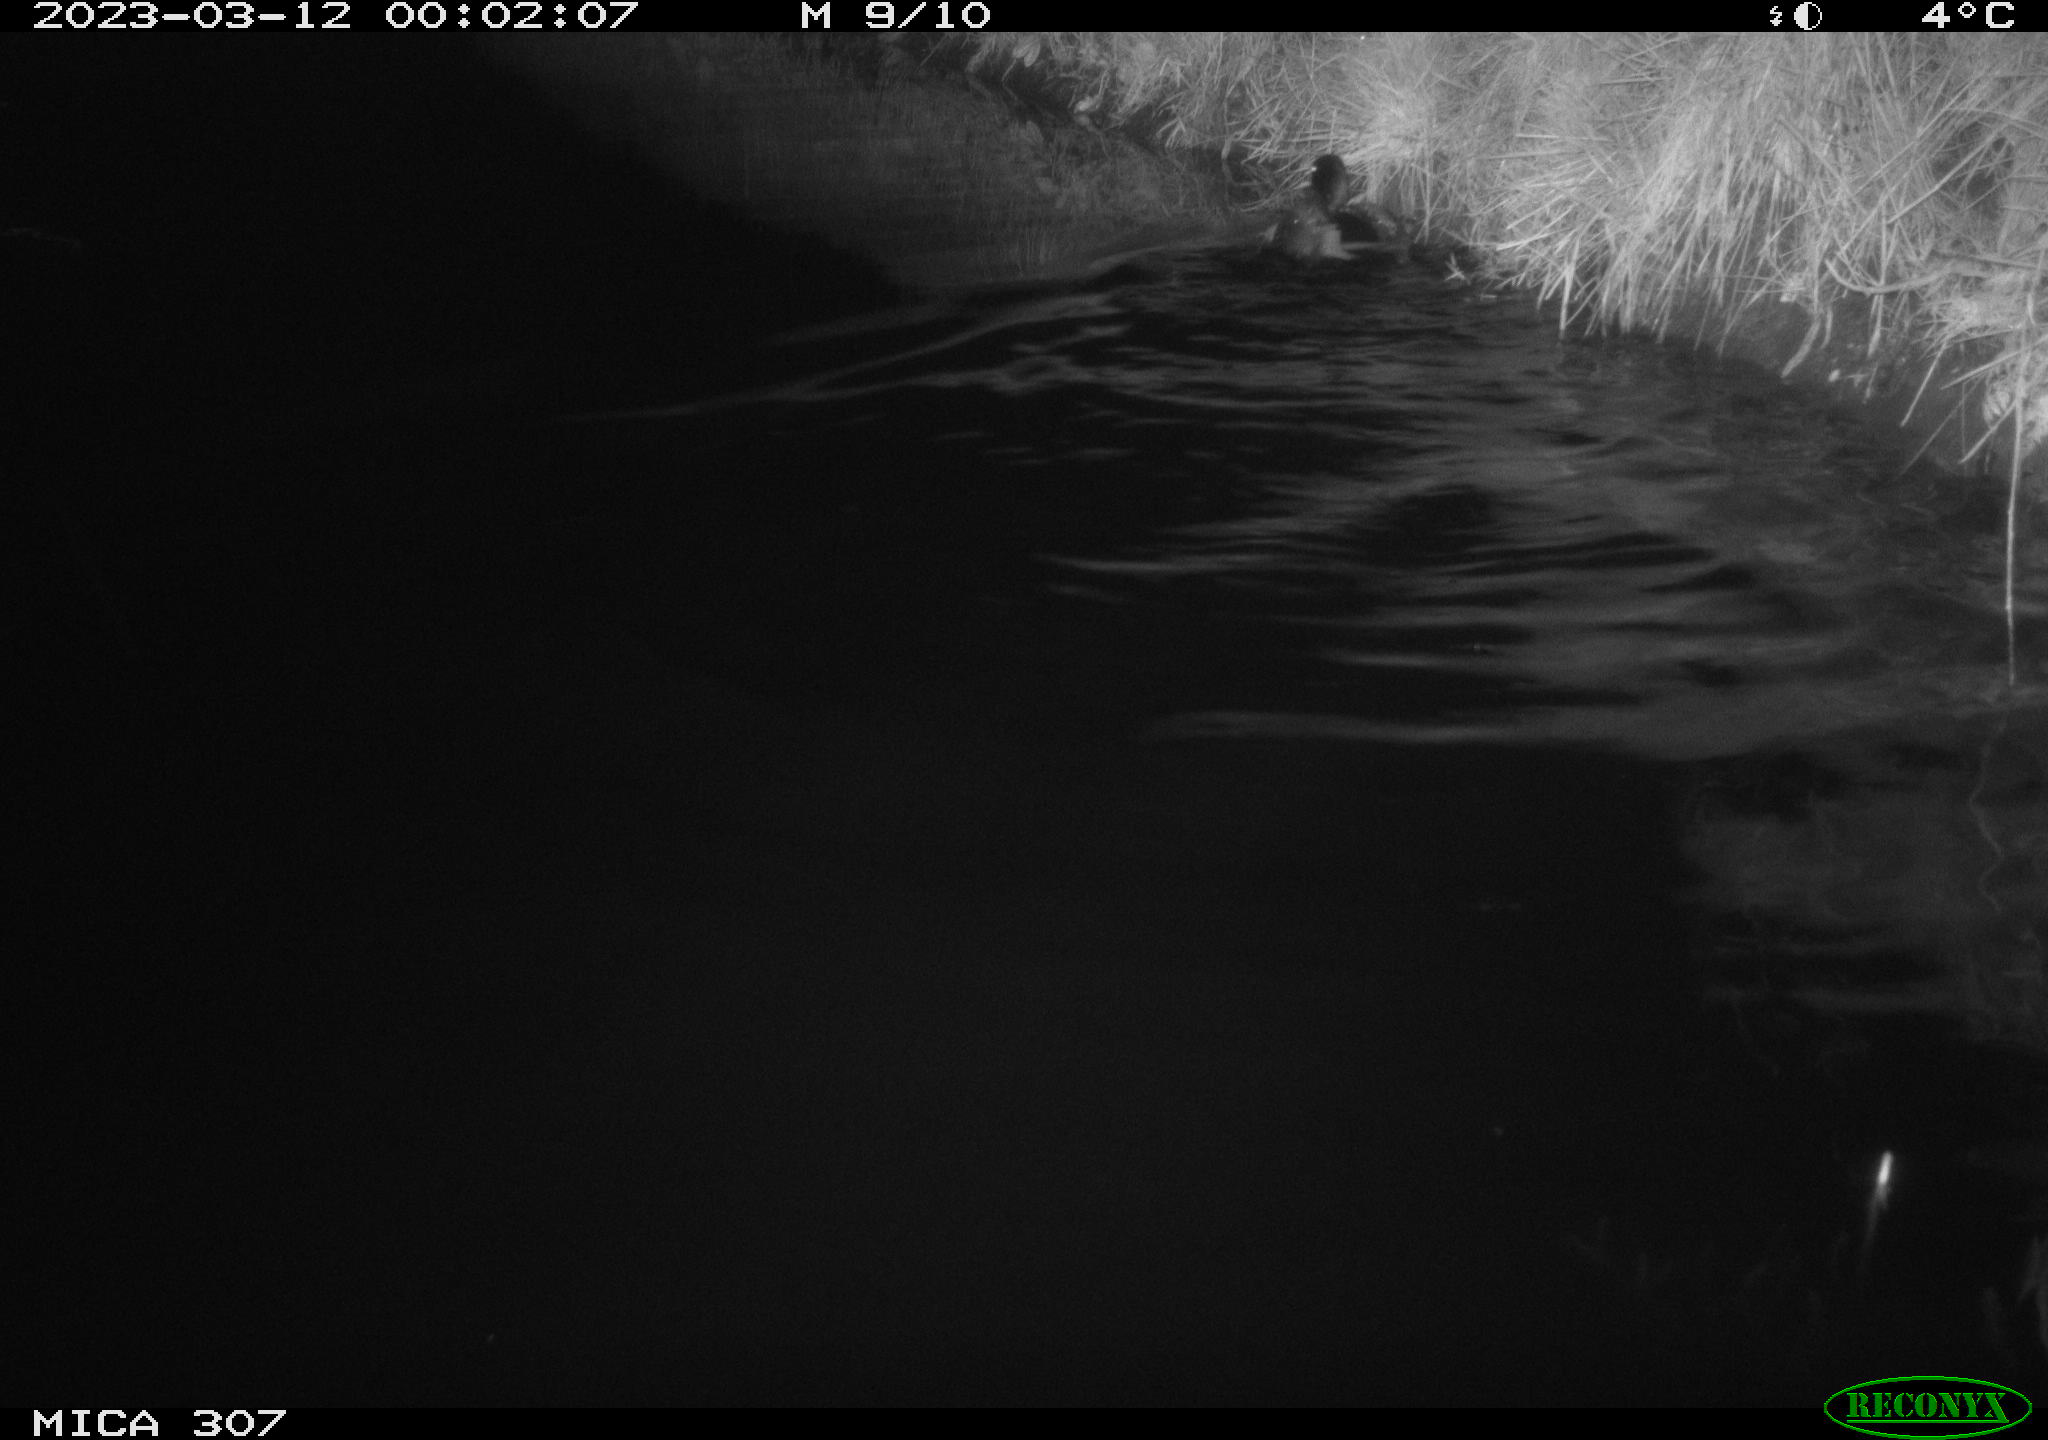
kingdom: Animalia
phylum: Chordata
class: Aves
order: Anseriformes
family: Anatidae
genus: Anas
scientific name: Anas
